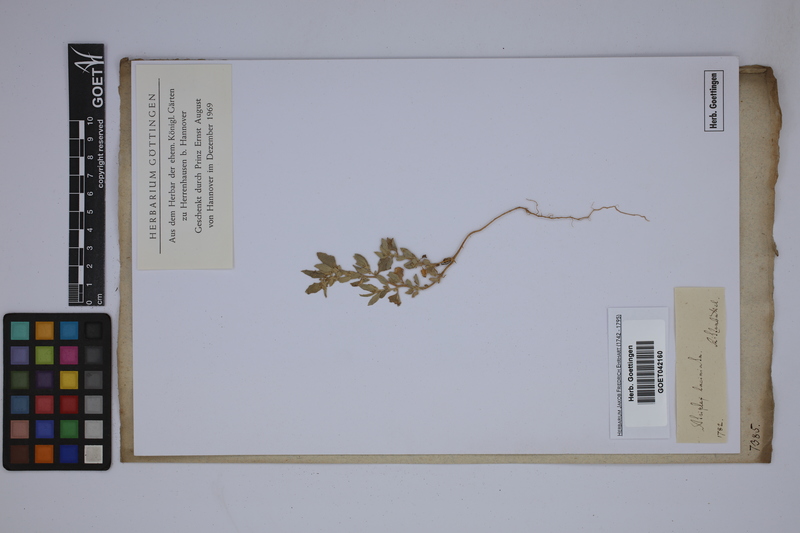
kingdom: Plantae
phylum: Tracheophyta
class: Magnoliopsida
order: Caryophyllales
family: Amaranthaceae
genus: Atriplex
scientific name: Atriplex laciniata
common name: Frosted orache
